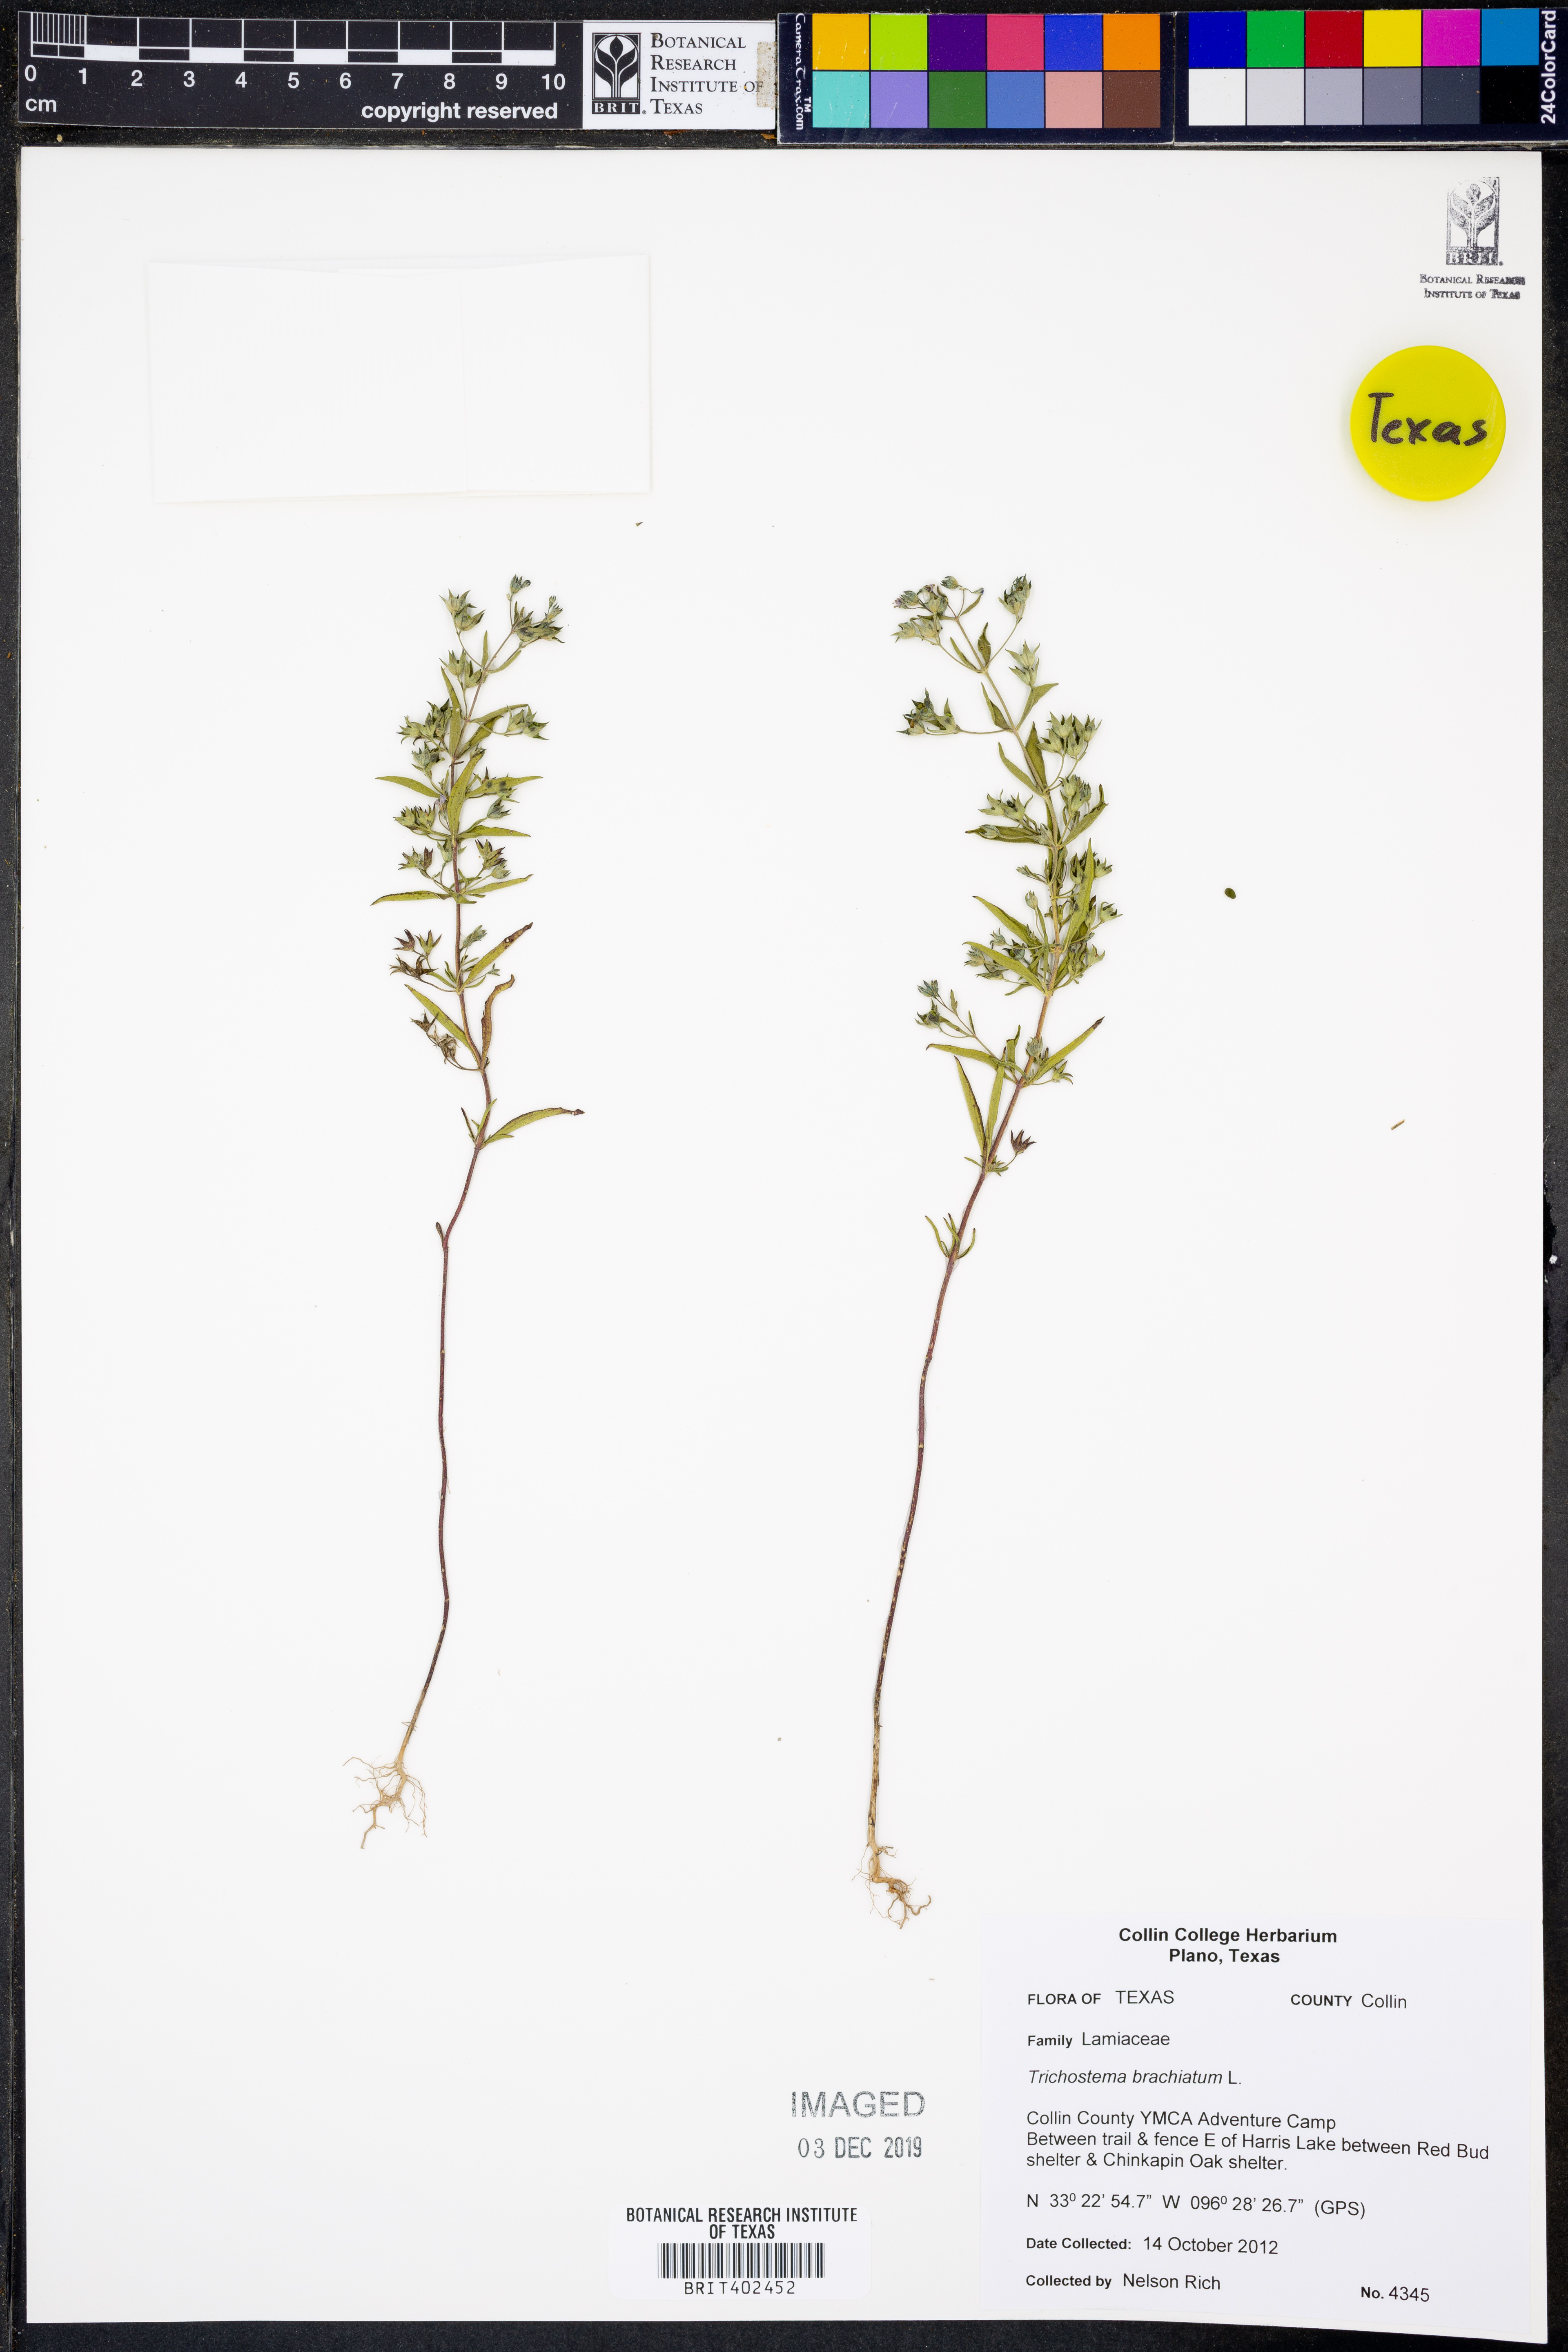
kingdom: Plantae
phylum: Tracheophyta
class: Magnoliopsida
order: Lamiales
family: Lamiaceae
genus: Trichostema
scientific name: Trichostema brachiatum
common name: False pennyroyal
